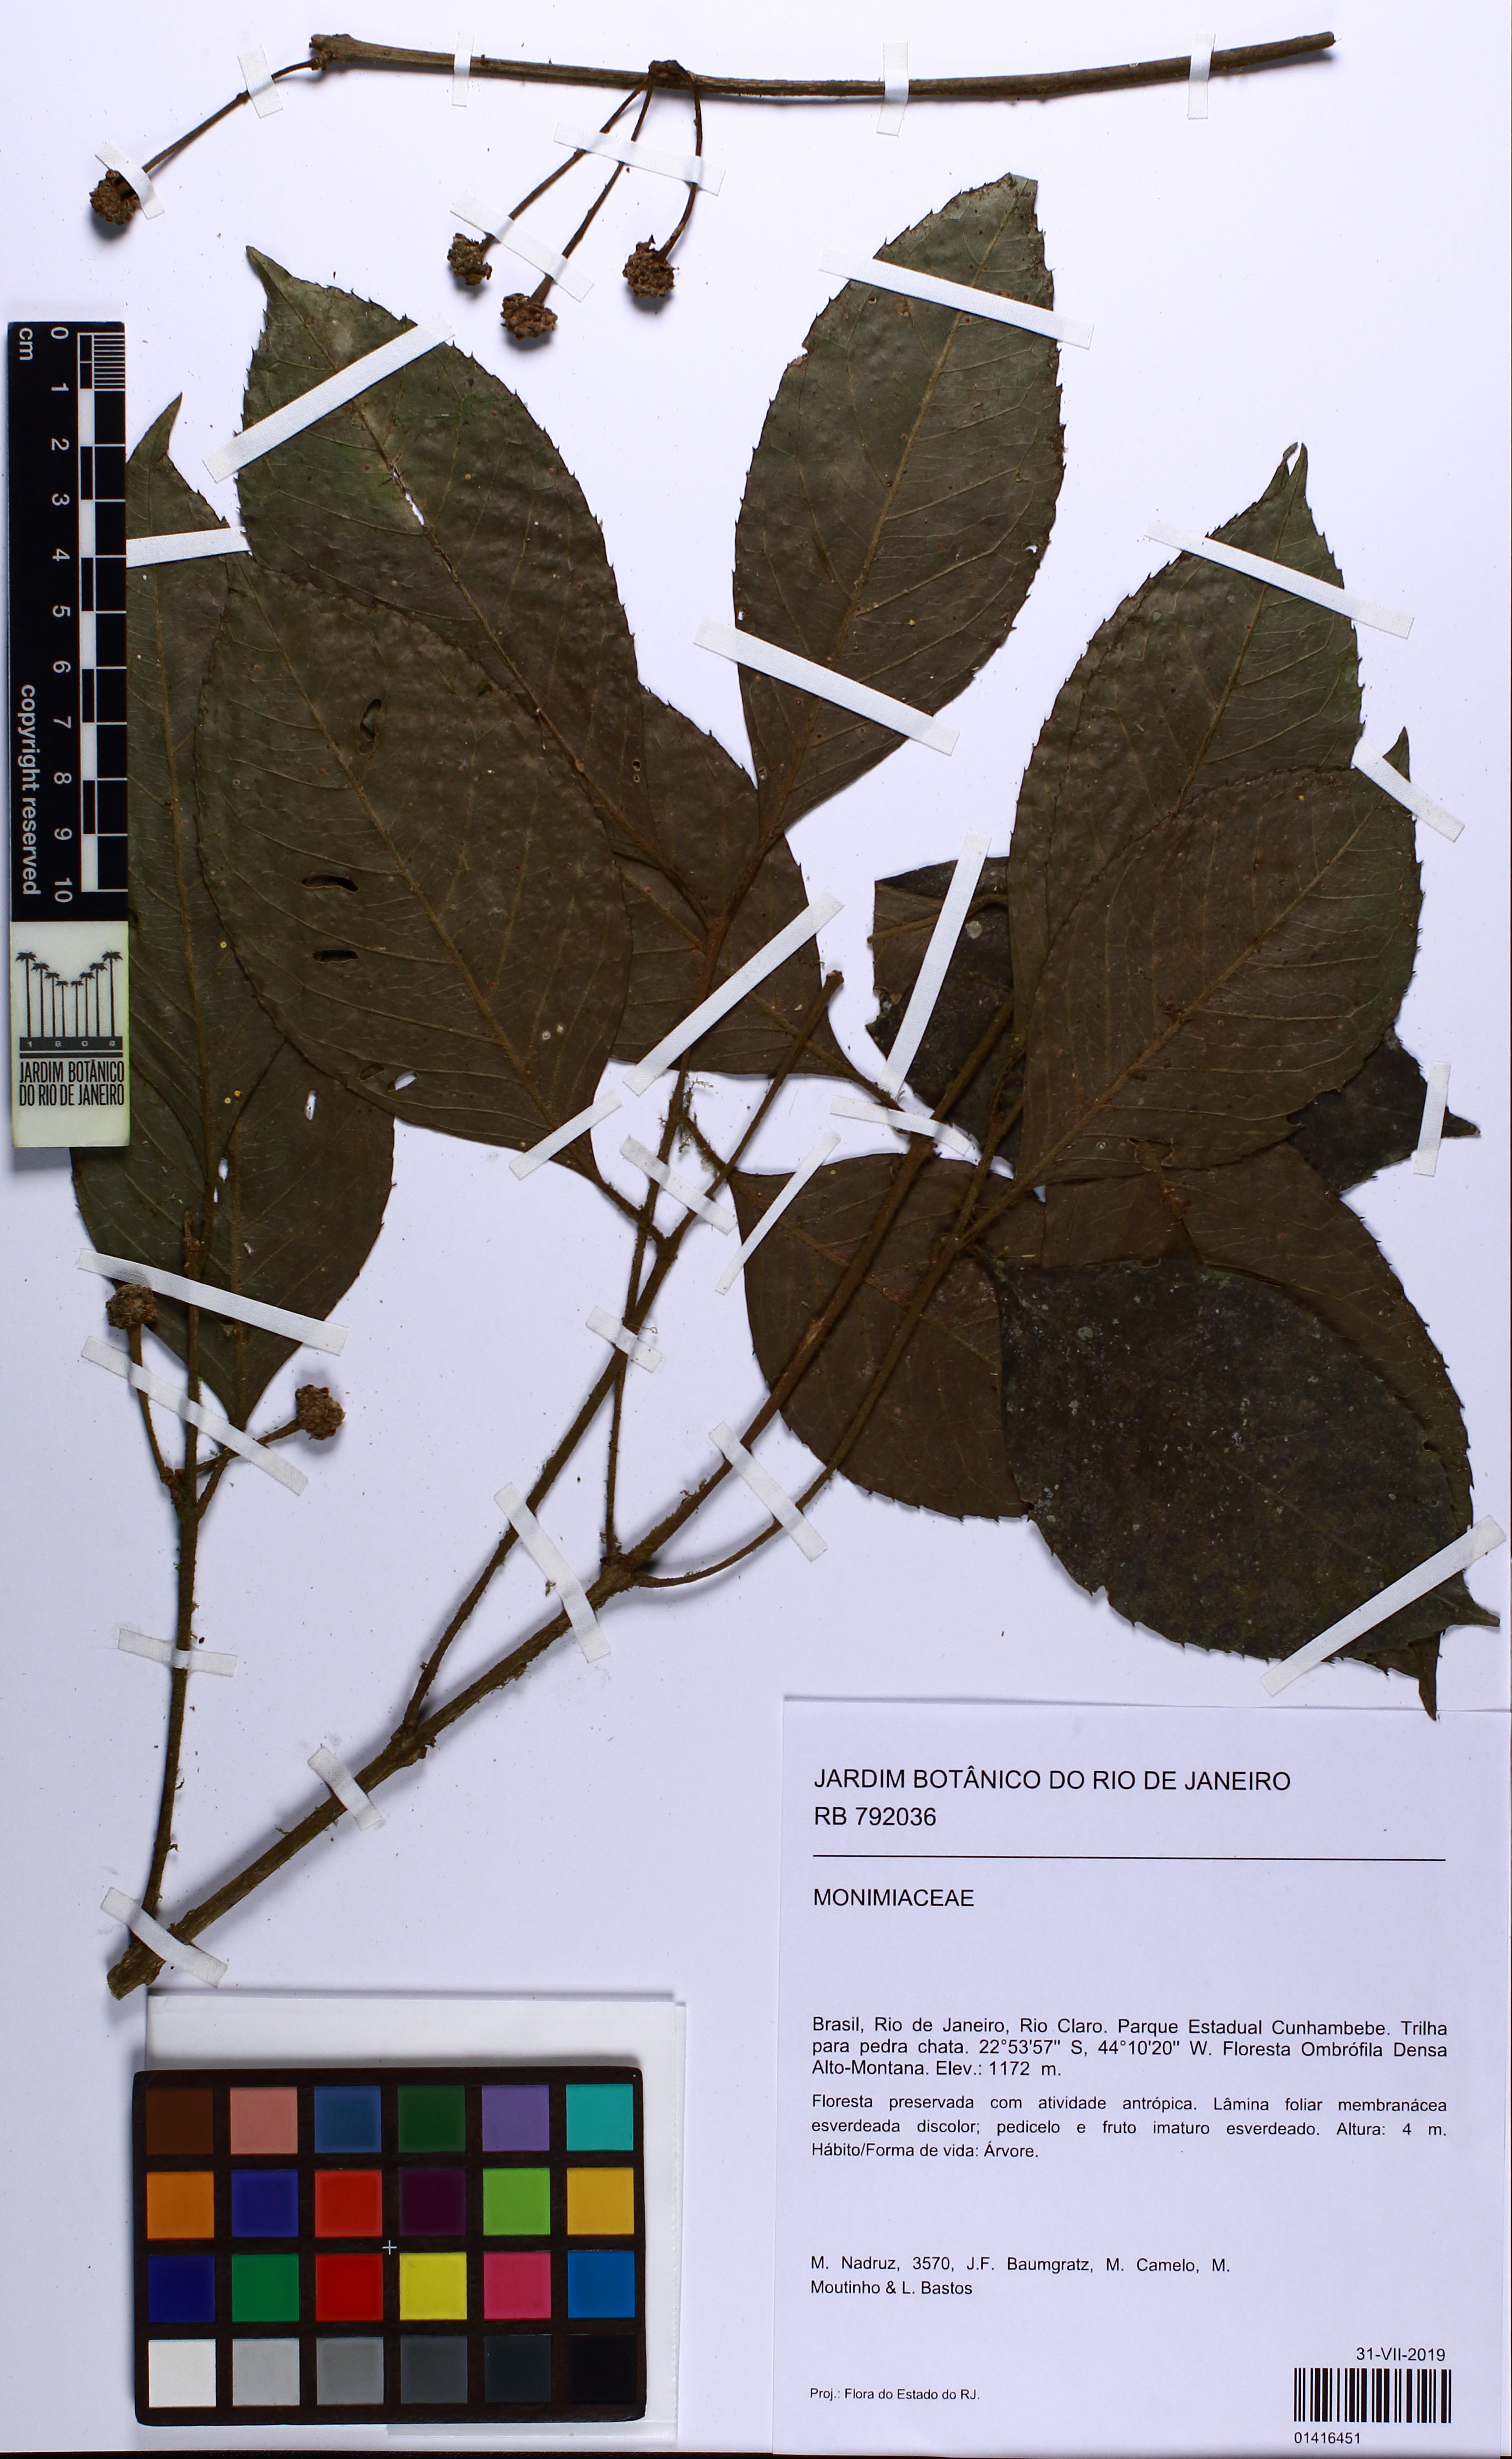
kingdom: Plantae
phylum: Tracheophyta
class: Magnoliopsida
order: Laurales
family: Monimiaceae
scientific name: Monimiaceae
